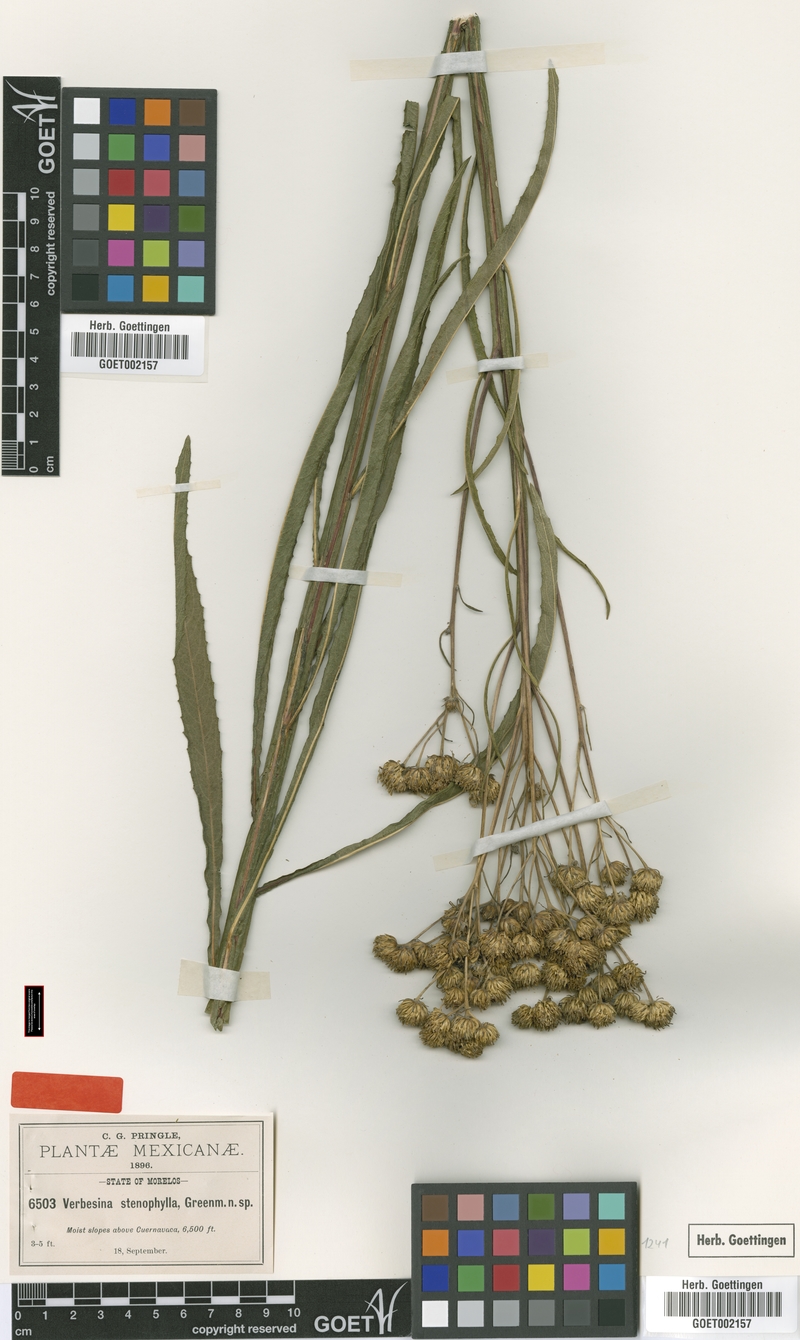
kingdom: Plantae
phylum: Tracheophyta
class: Magnoliopsida
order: Asterales
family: Asteraceae
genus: Verbesina
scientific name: Verbesina stenophylla
